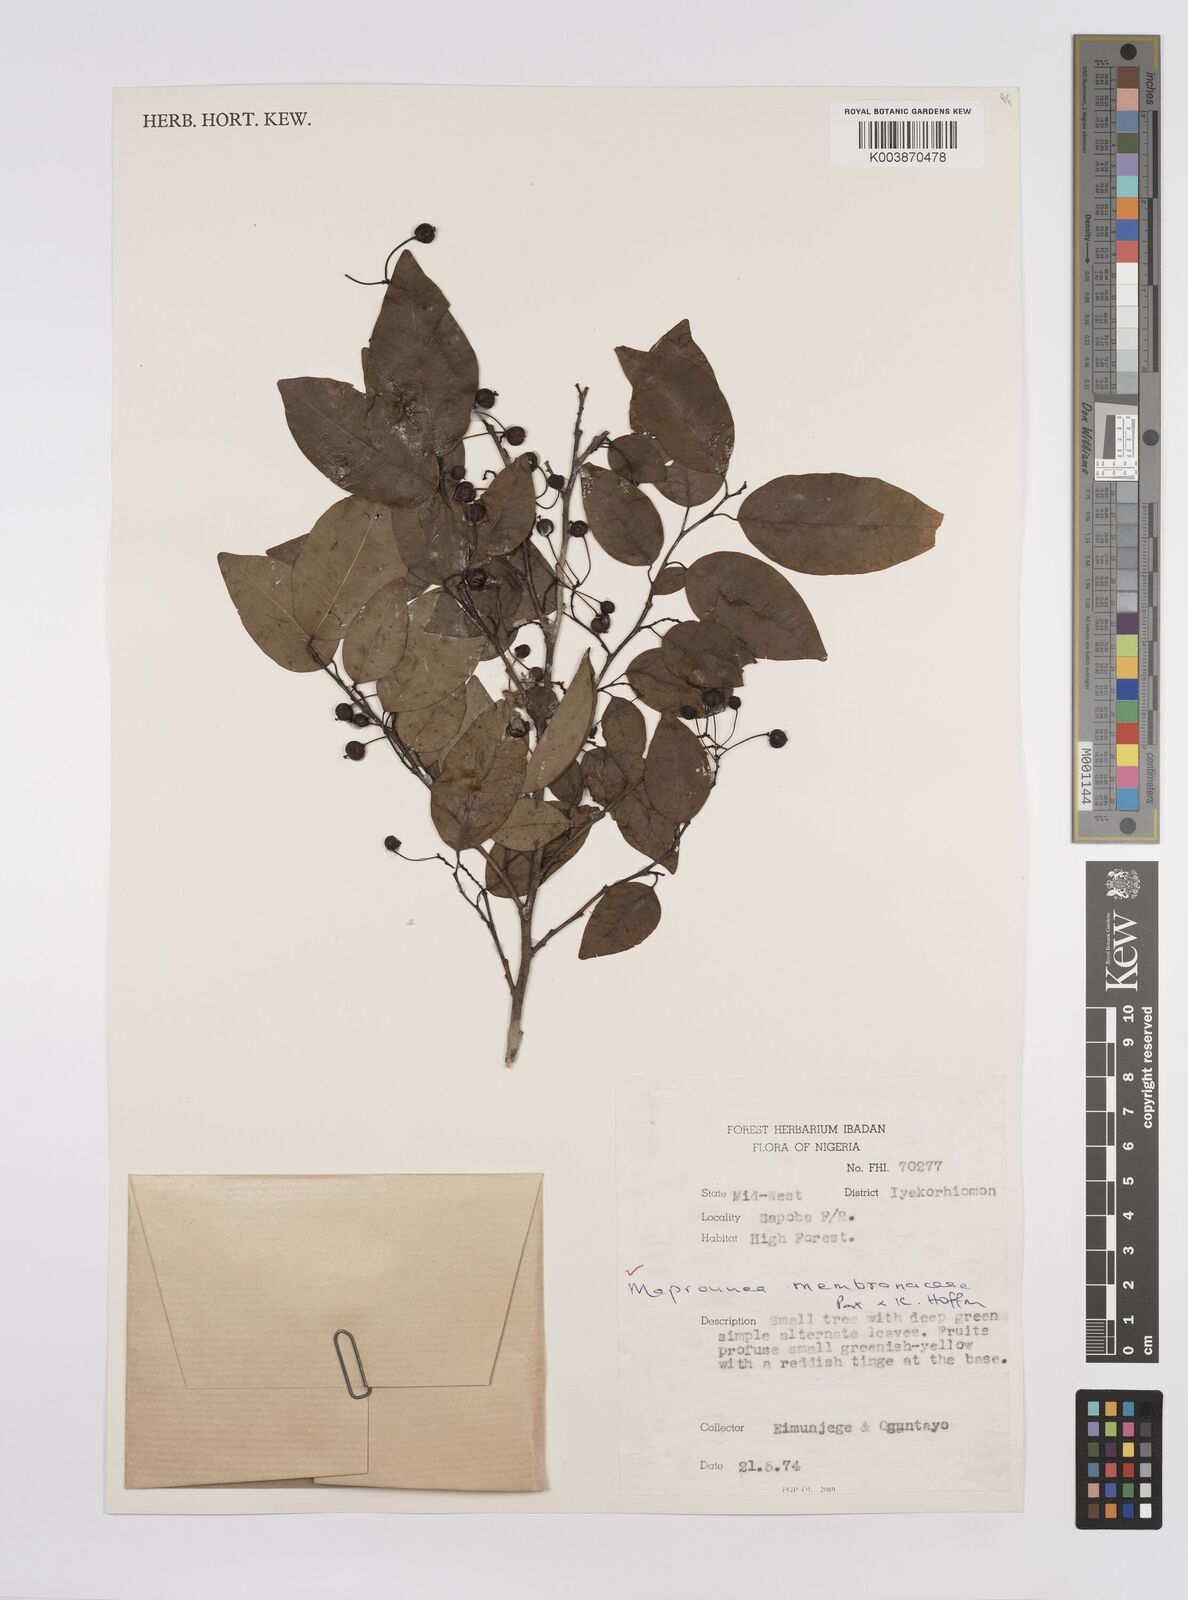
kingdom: Plantae
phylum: Tracheophyta
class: Magnoliopsida
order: Malpighiales
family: Euphorbiaceae
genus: Maprounea
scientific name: Maprounea membranacea
